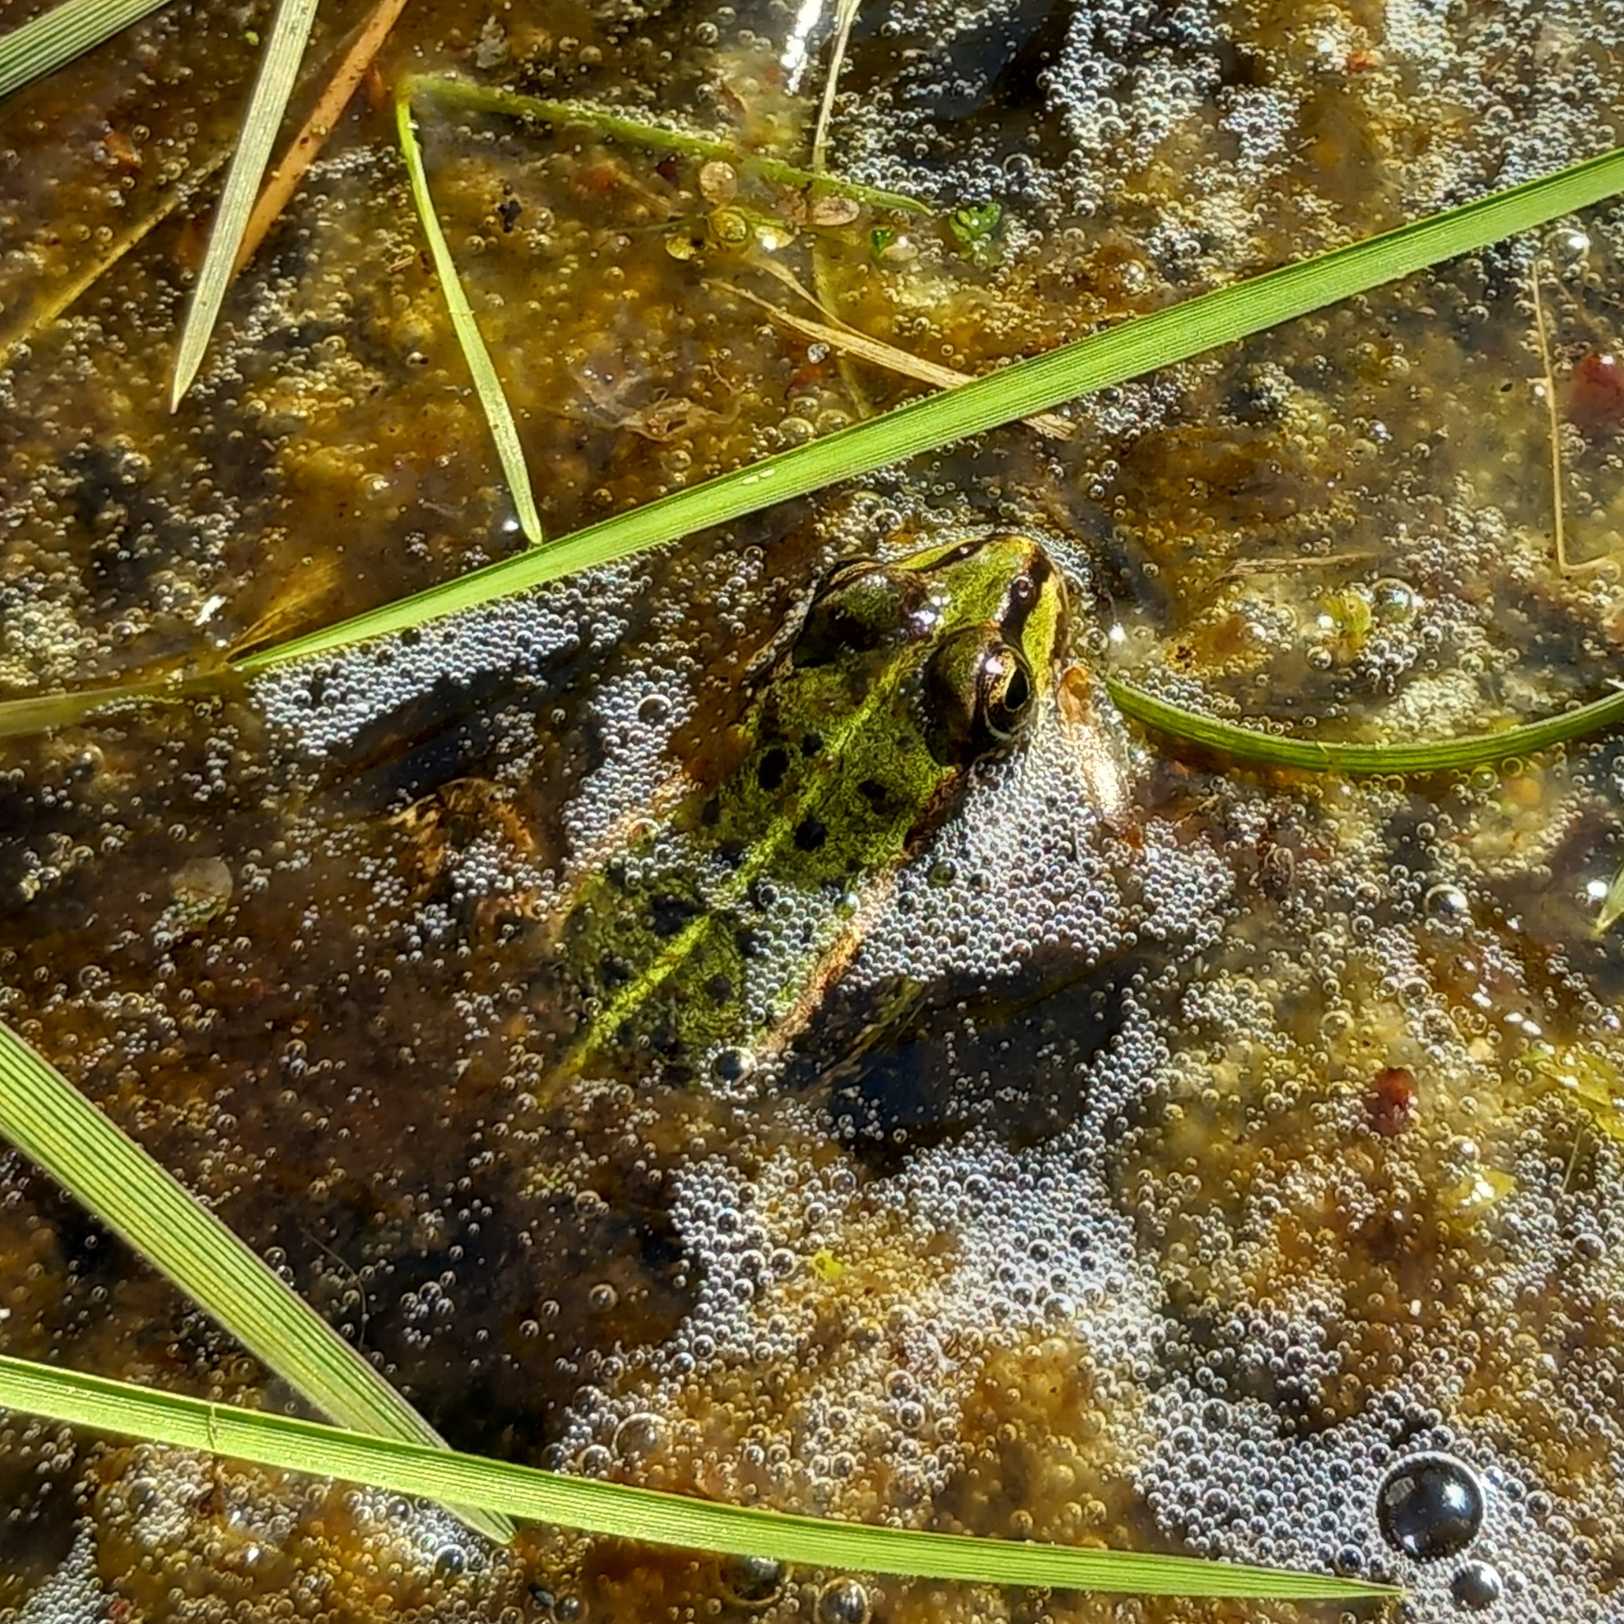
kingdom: Animalia
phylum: Chordata
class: Amphibia
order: Anura
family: Ranidae
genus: Pelophylax
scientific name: Pelophylax lessonae
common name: Grøn frø
